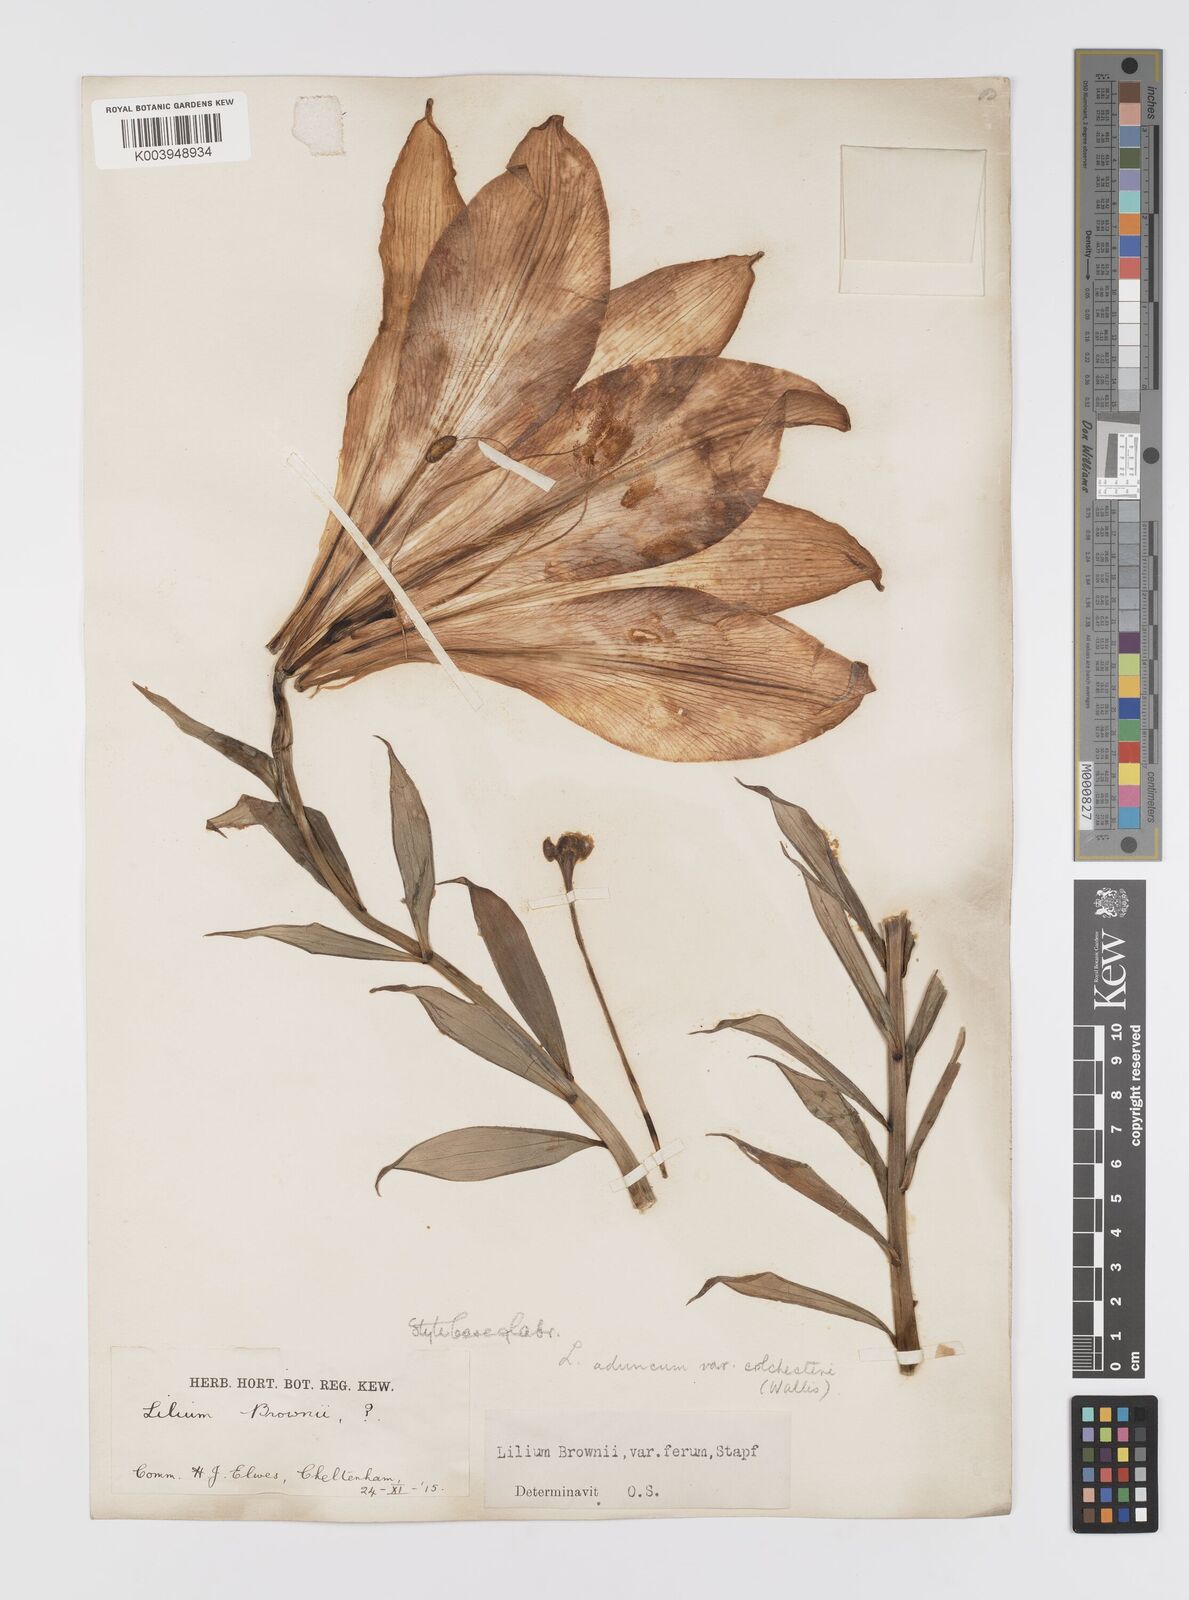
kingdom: Plantae
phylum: Tracheophyta
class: Liliopsida
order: Liliales
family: Liliaceae
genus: Lilium
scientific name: Lilium japonicum
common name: Japanese lily
